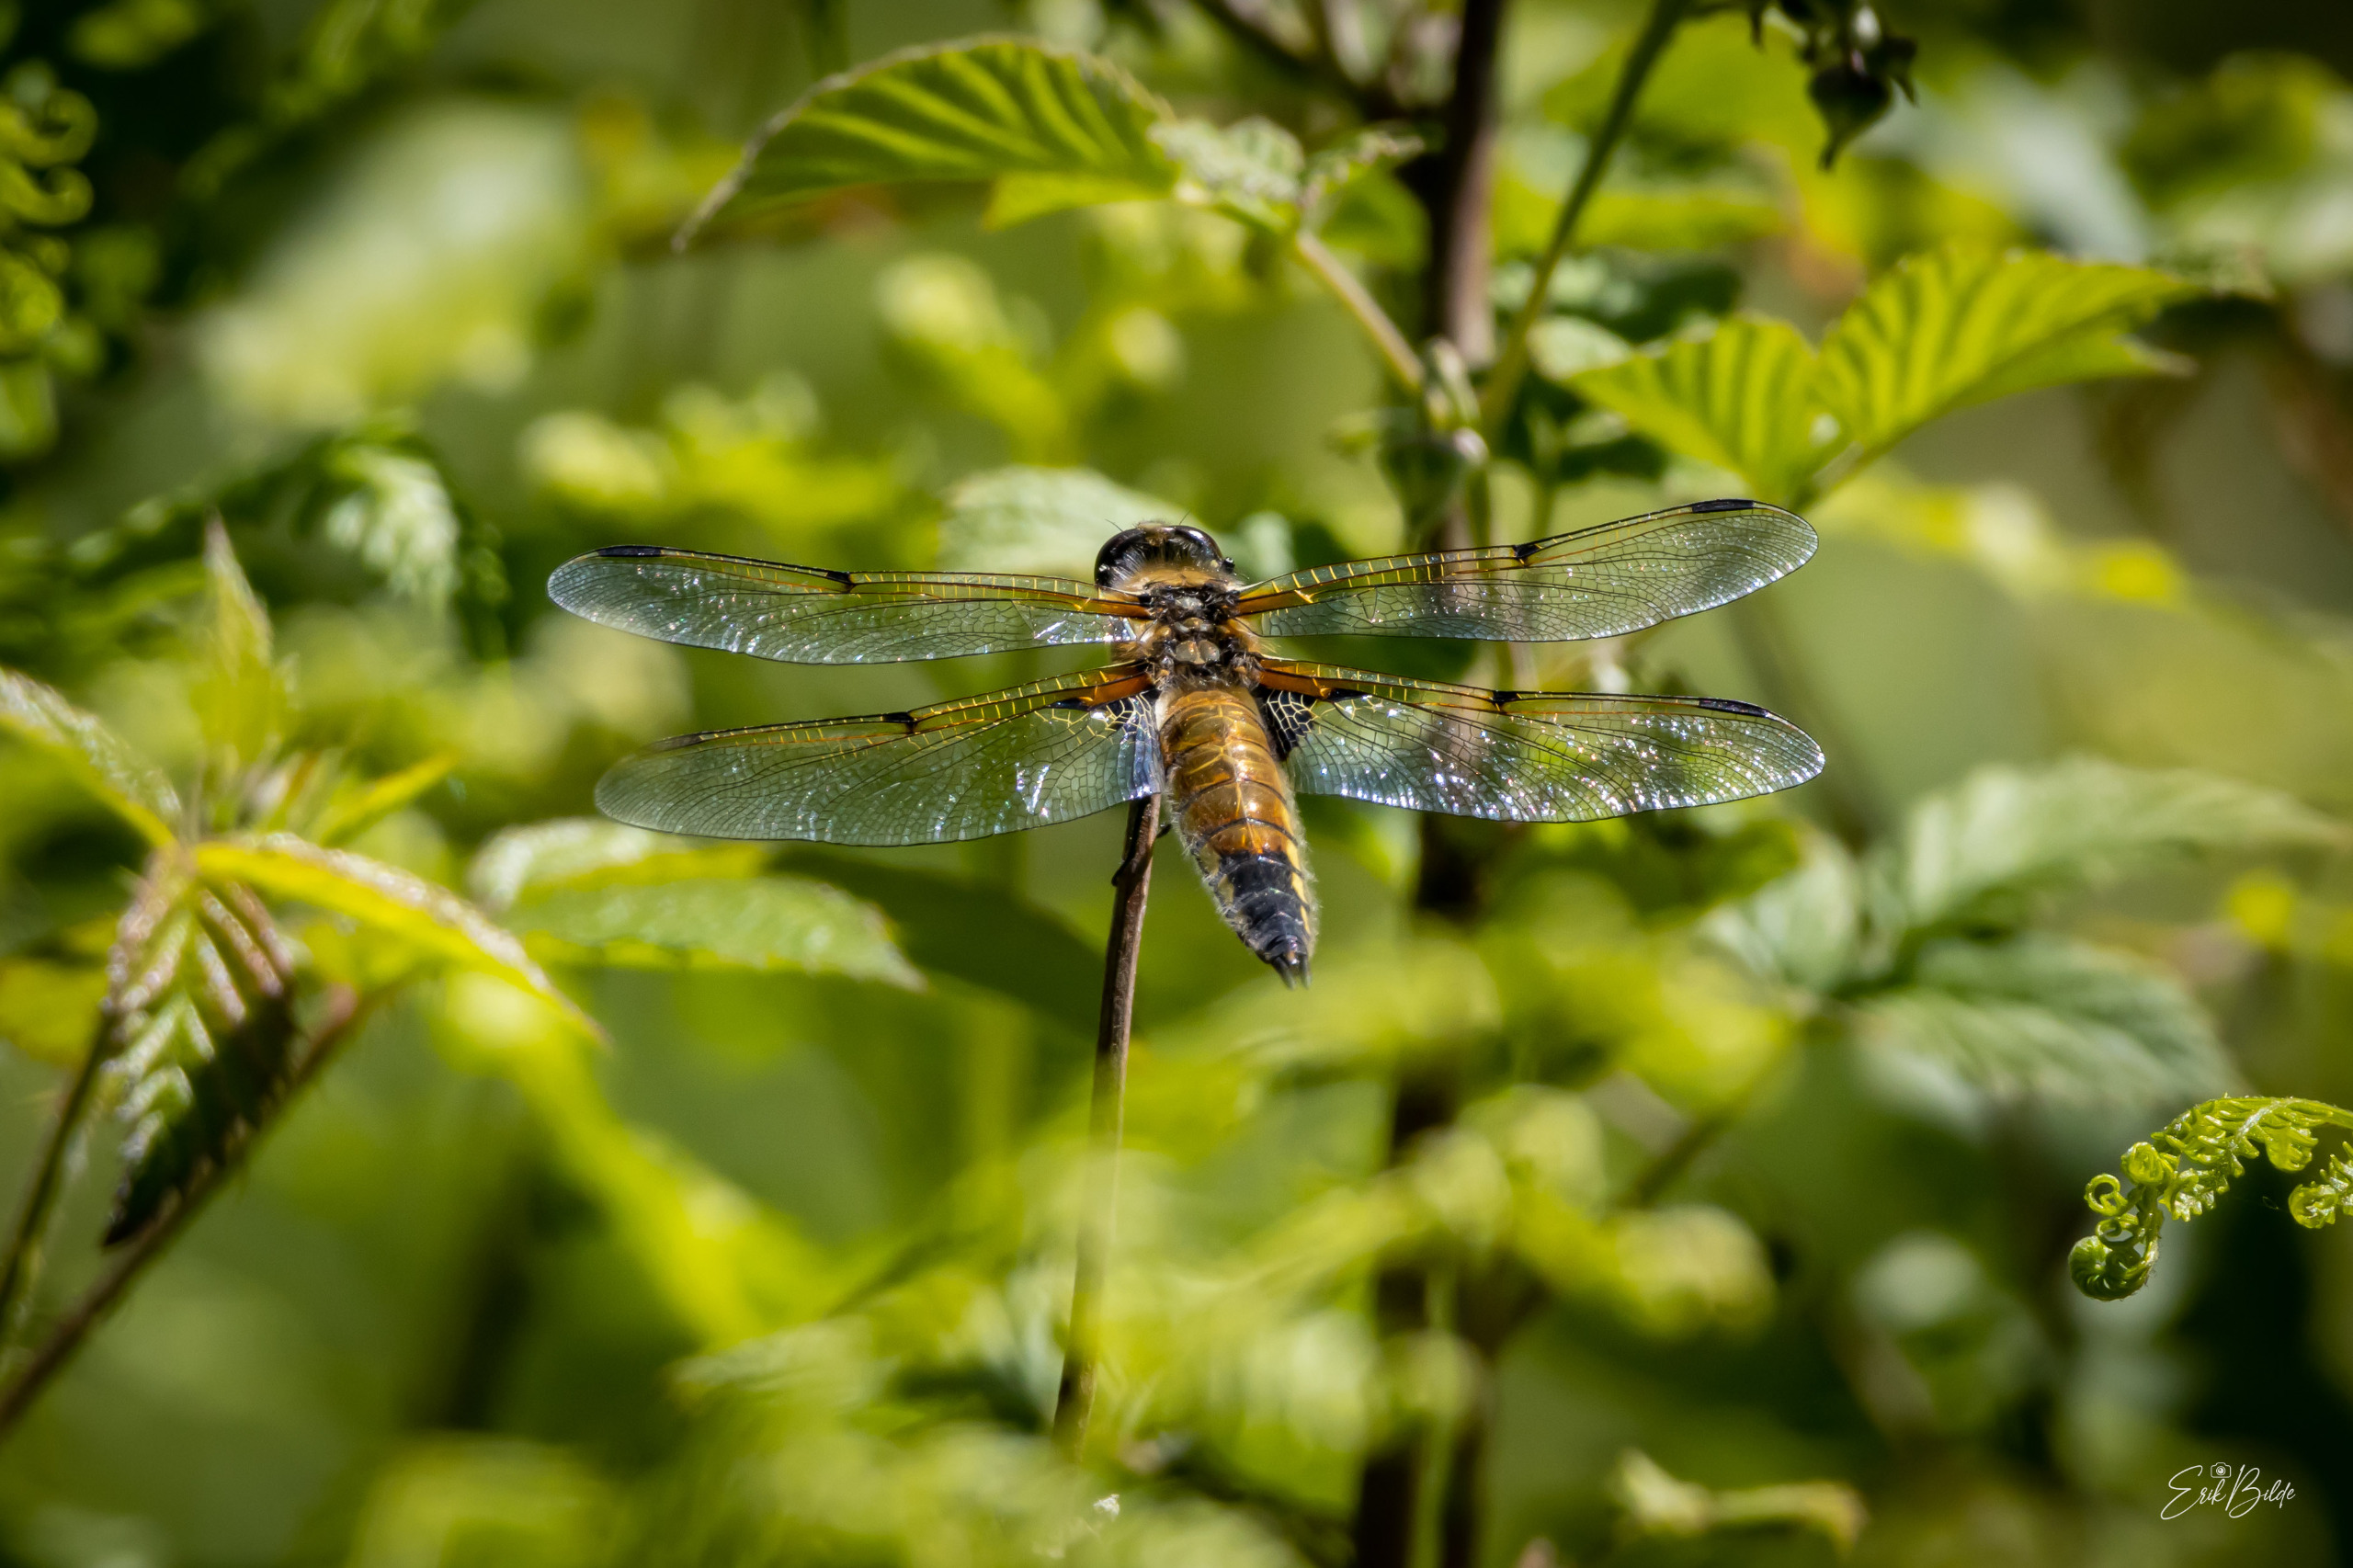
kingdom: Animalia
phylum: Arthropoda
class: Insecta
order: Odonata
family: Libellulidae
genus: Libellula
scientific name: Libellula quadrimaculata
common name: Fireplettet libel
